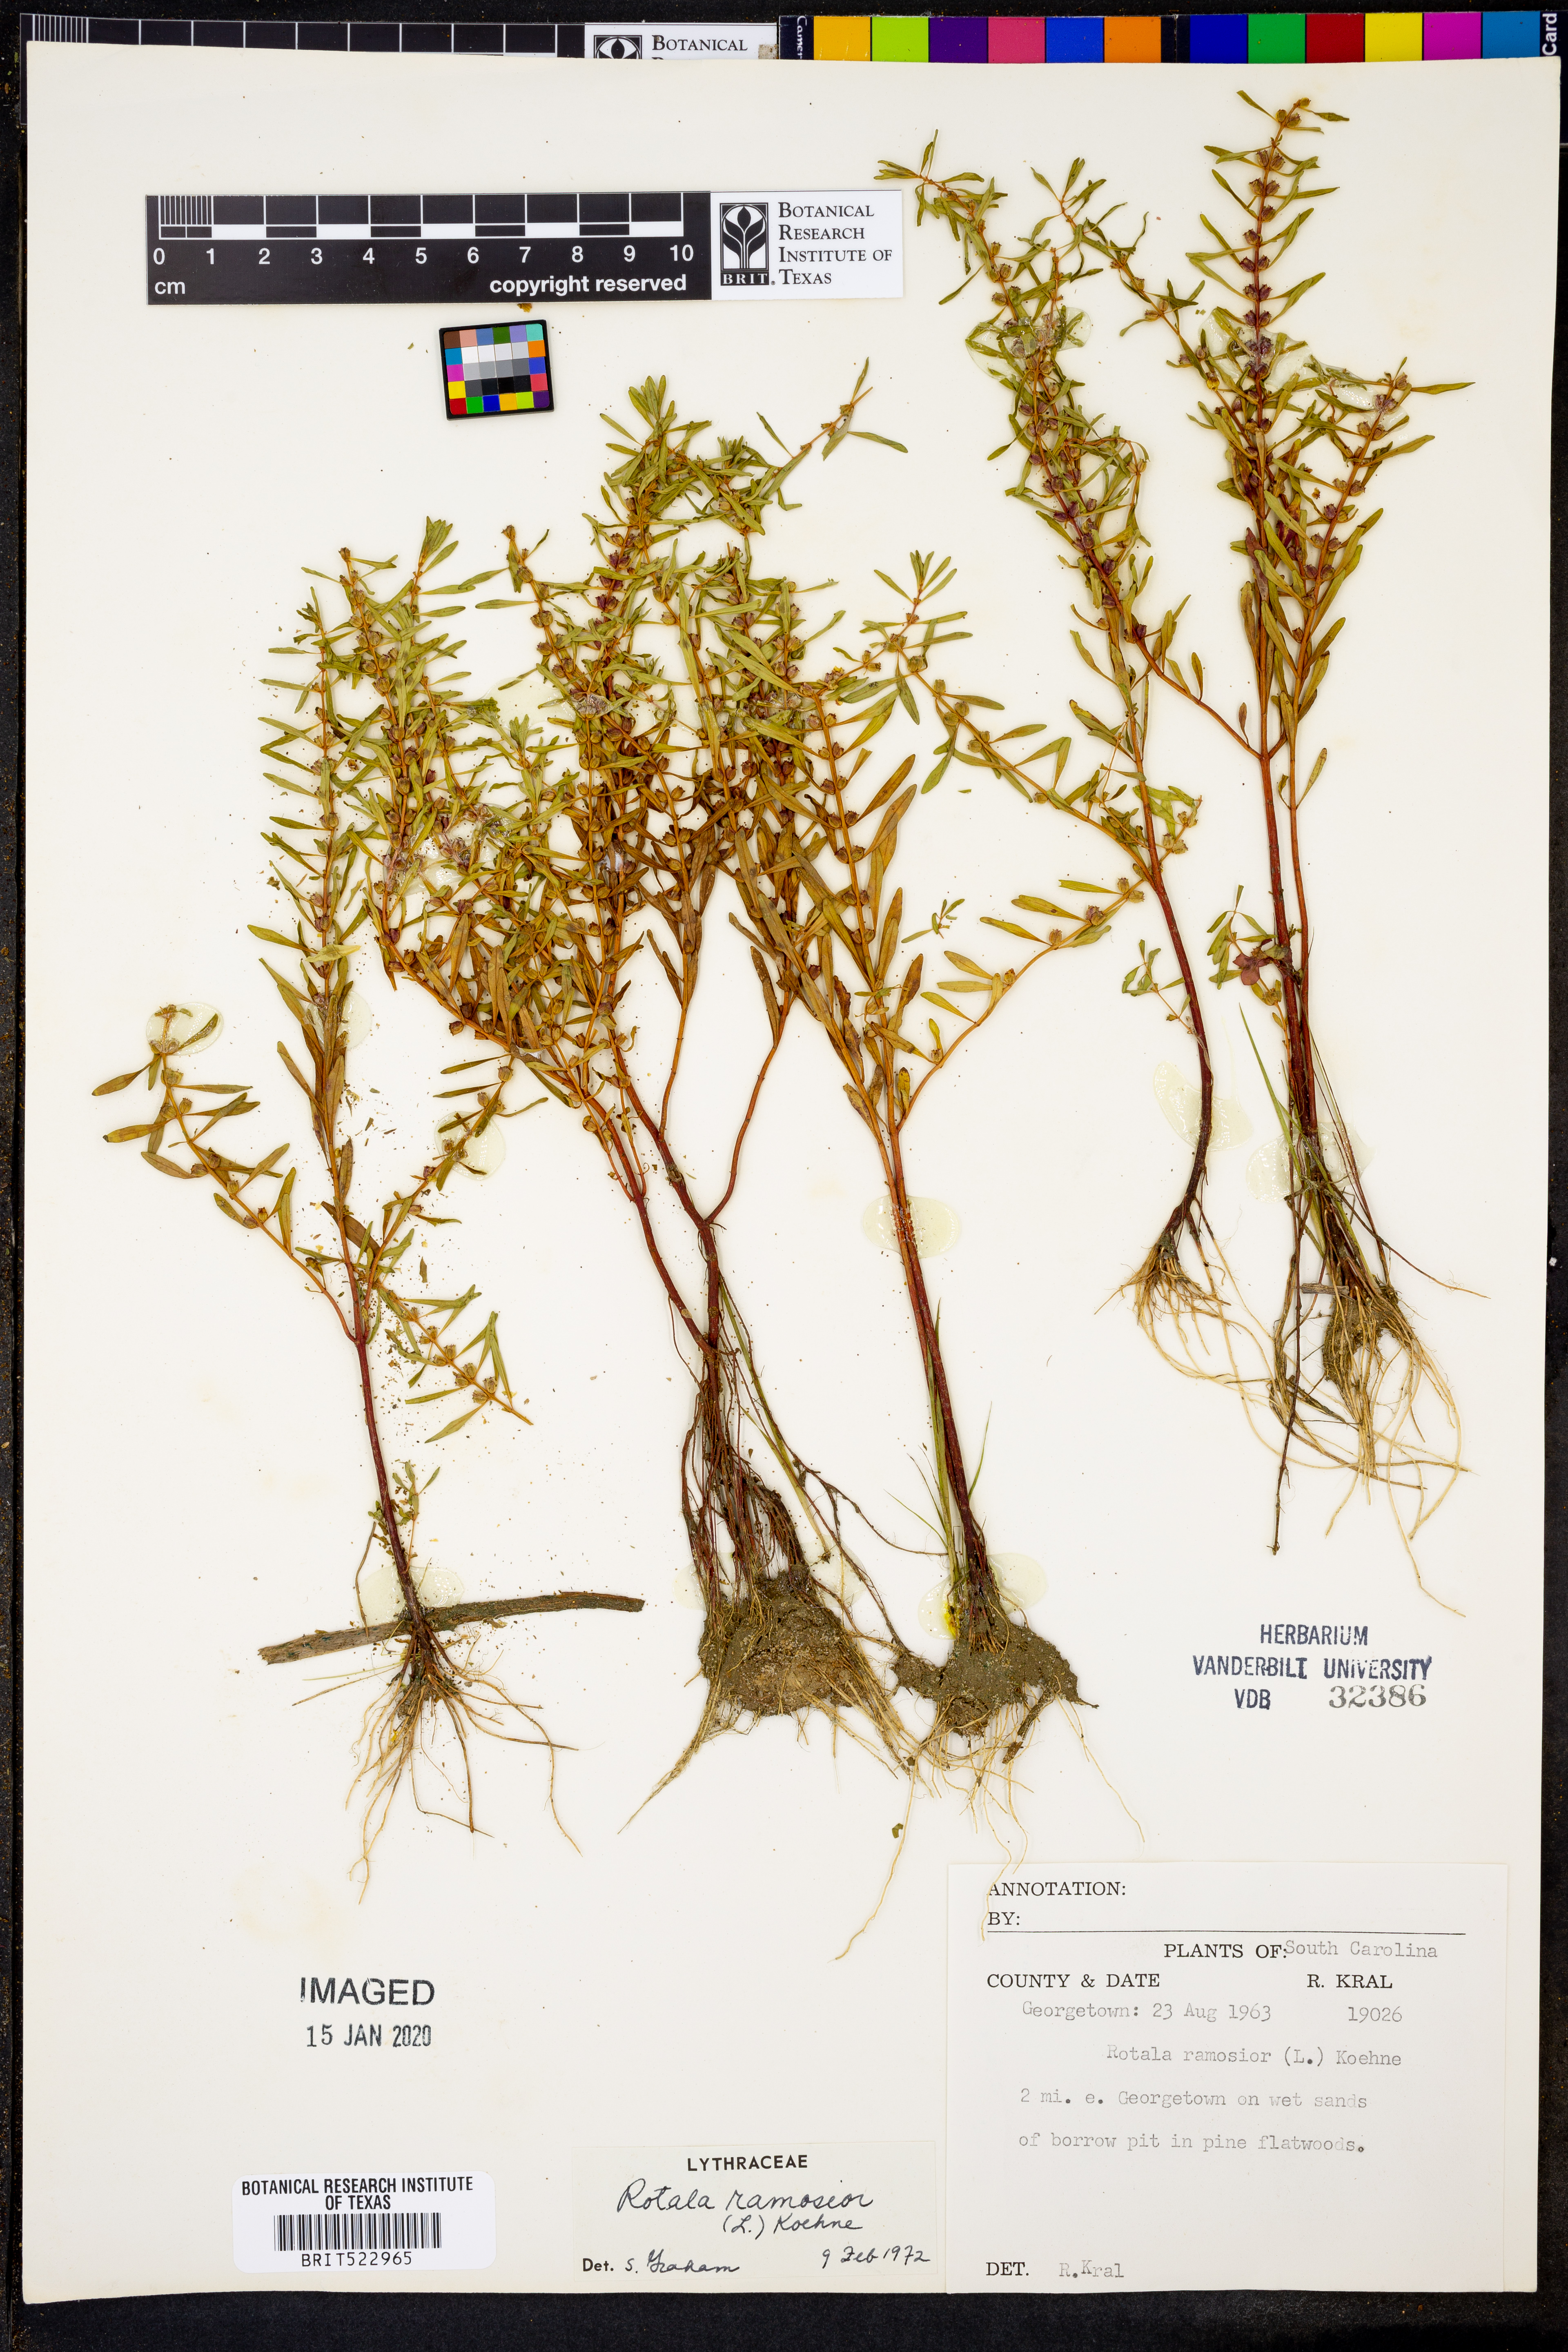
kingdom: Plantae
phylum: Tracheophyta
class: Magnoliopsida
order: Myrtales
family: Lythraceae
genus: Rotala
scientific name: Rotala ramosior
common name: Lowland rotala
